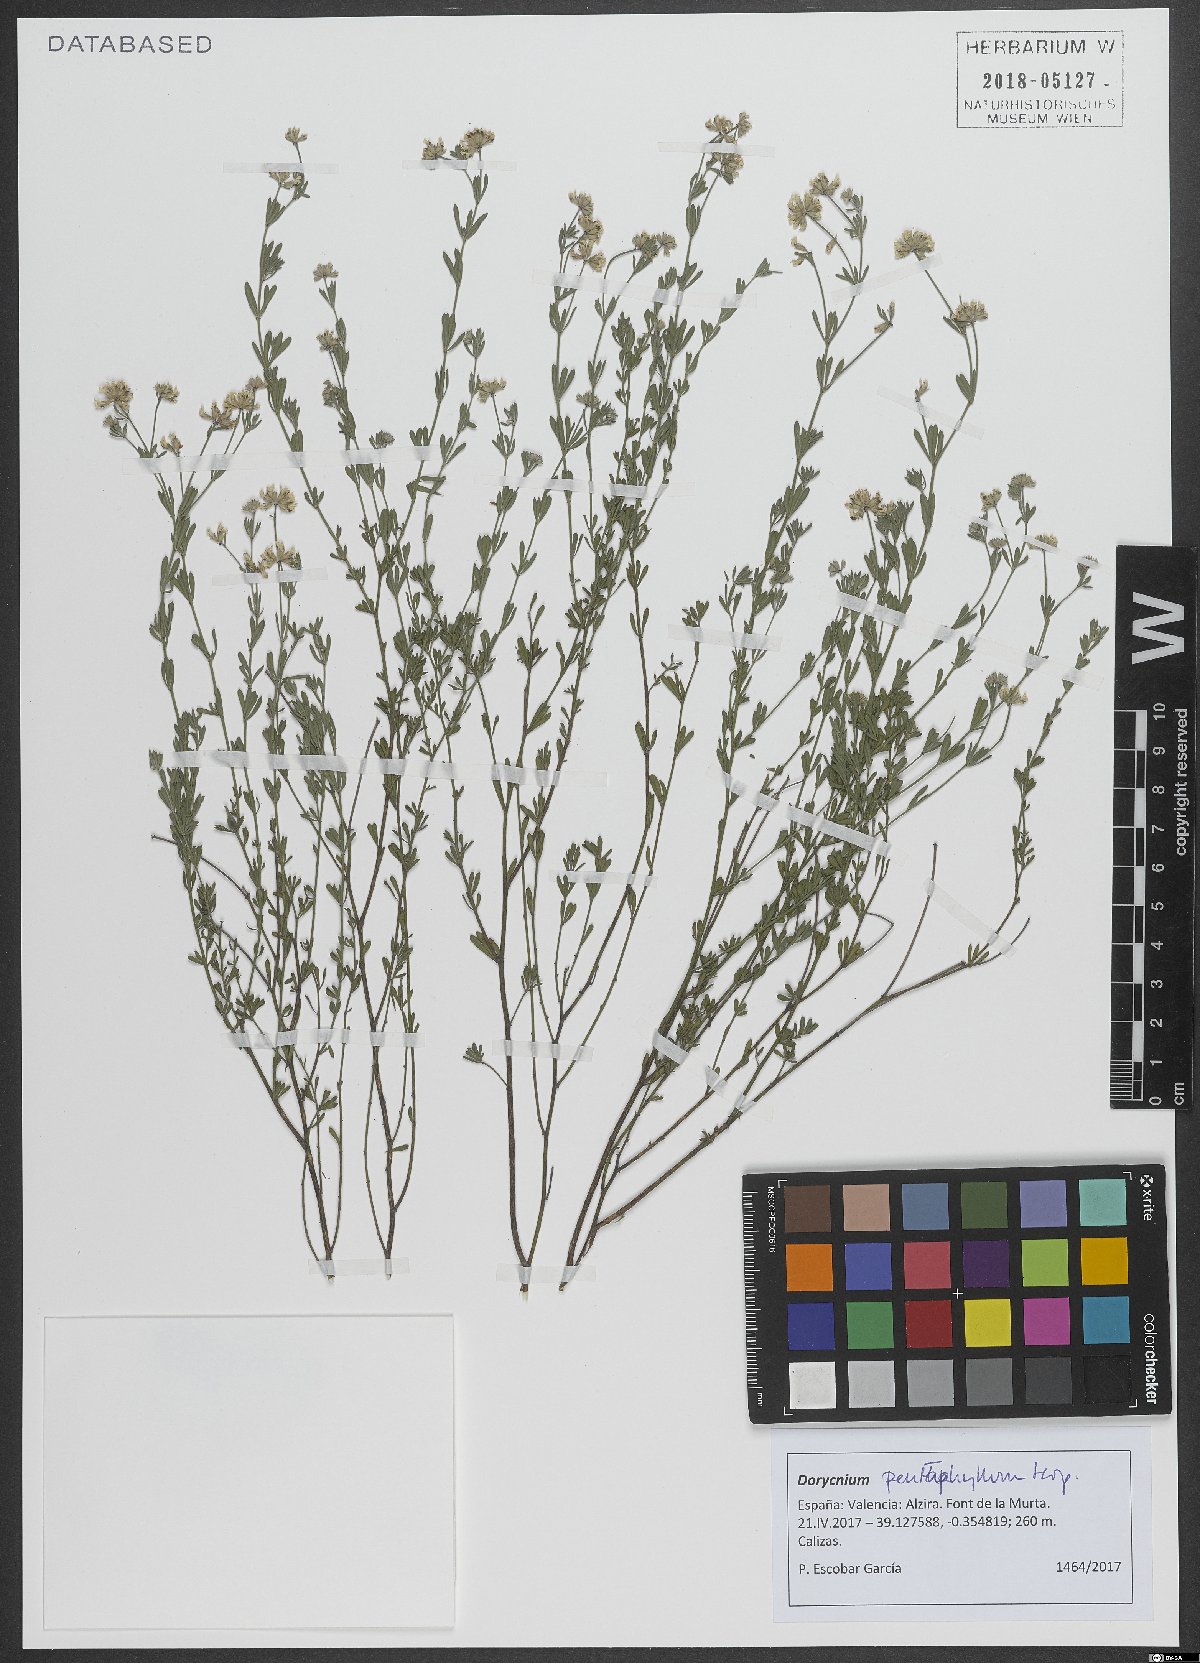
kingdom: Plantae
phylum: Tracheophyta
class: Magnoliopsida
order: Fabales
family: Fabaceae
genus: Lotus
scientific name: Lotus dorycnium
